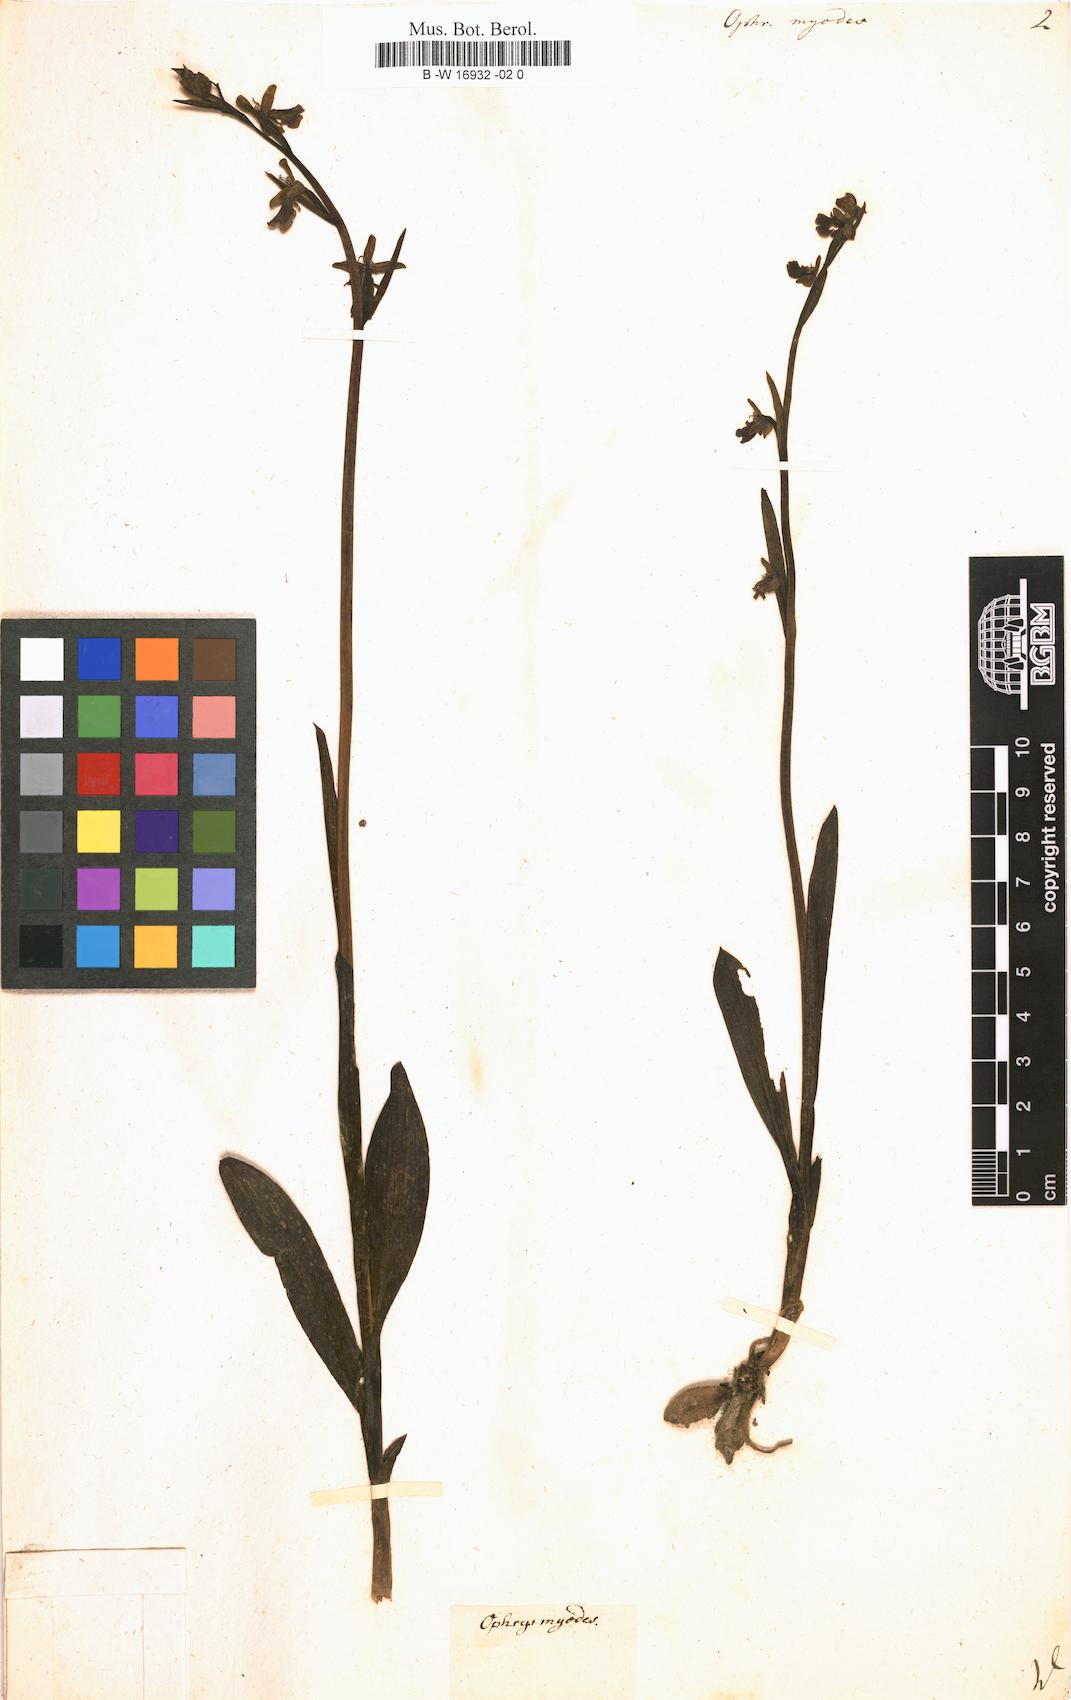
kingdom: Plantae
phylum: Tracheophyta
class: Liliopsida
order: Asparagales
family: Orchidaceae
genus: Ophrys
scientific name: Ophrys
